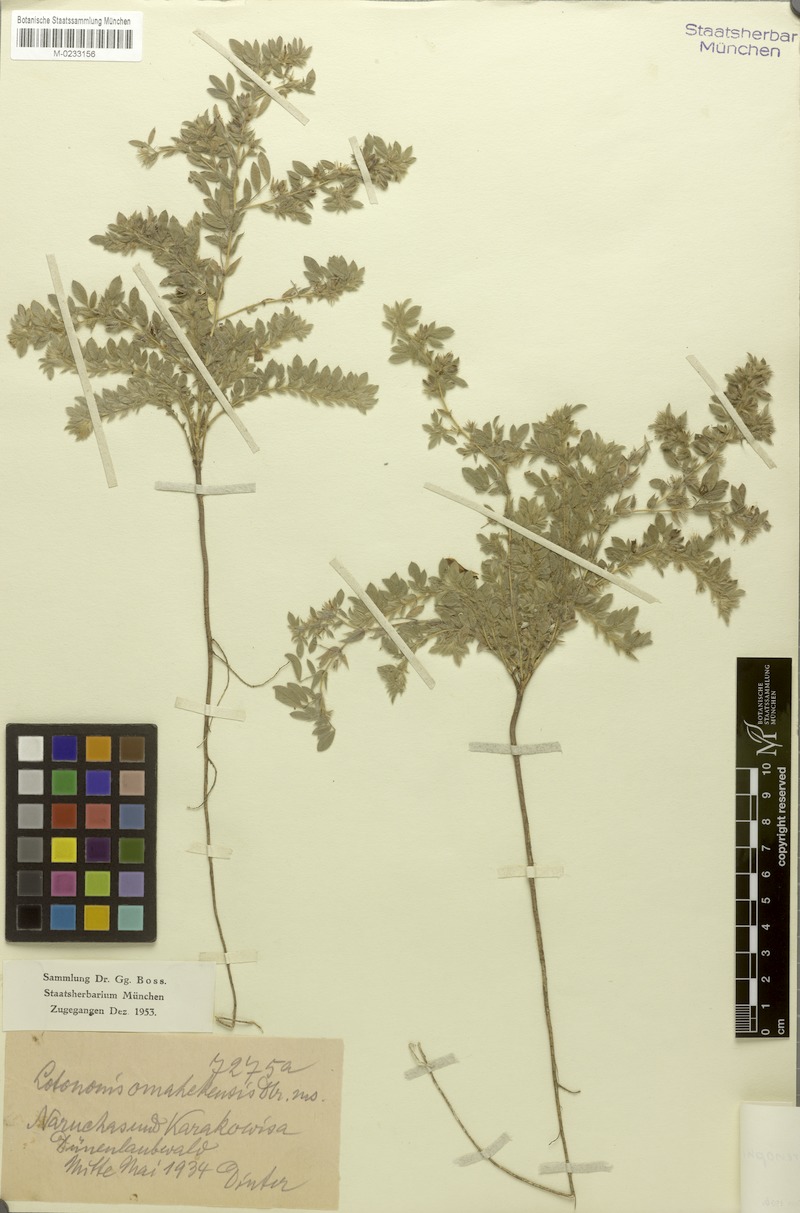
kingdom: Plantae
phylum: Tracheophyta
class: Magnoliopsida
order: Fabales
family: Fabaceae
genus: Indigofera
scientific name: Indigofera arenophila
